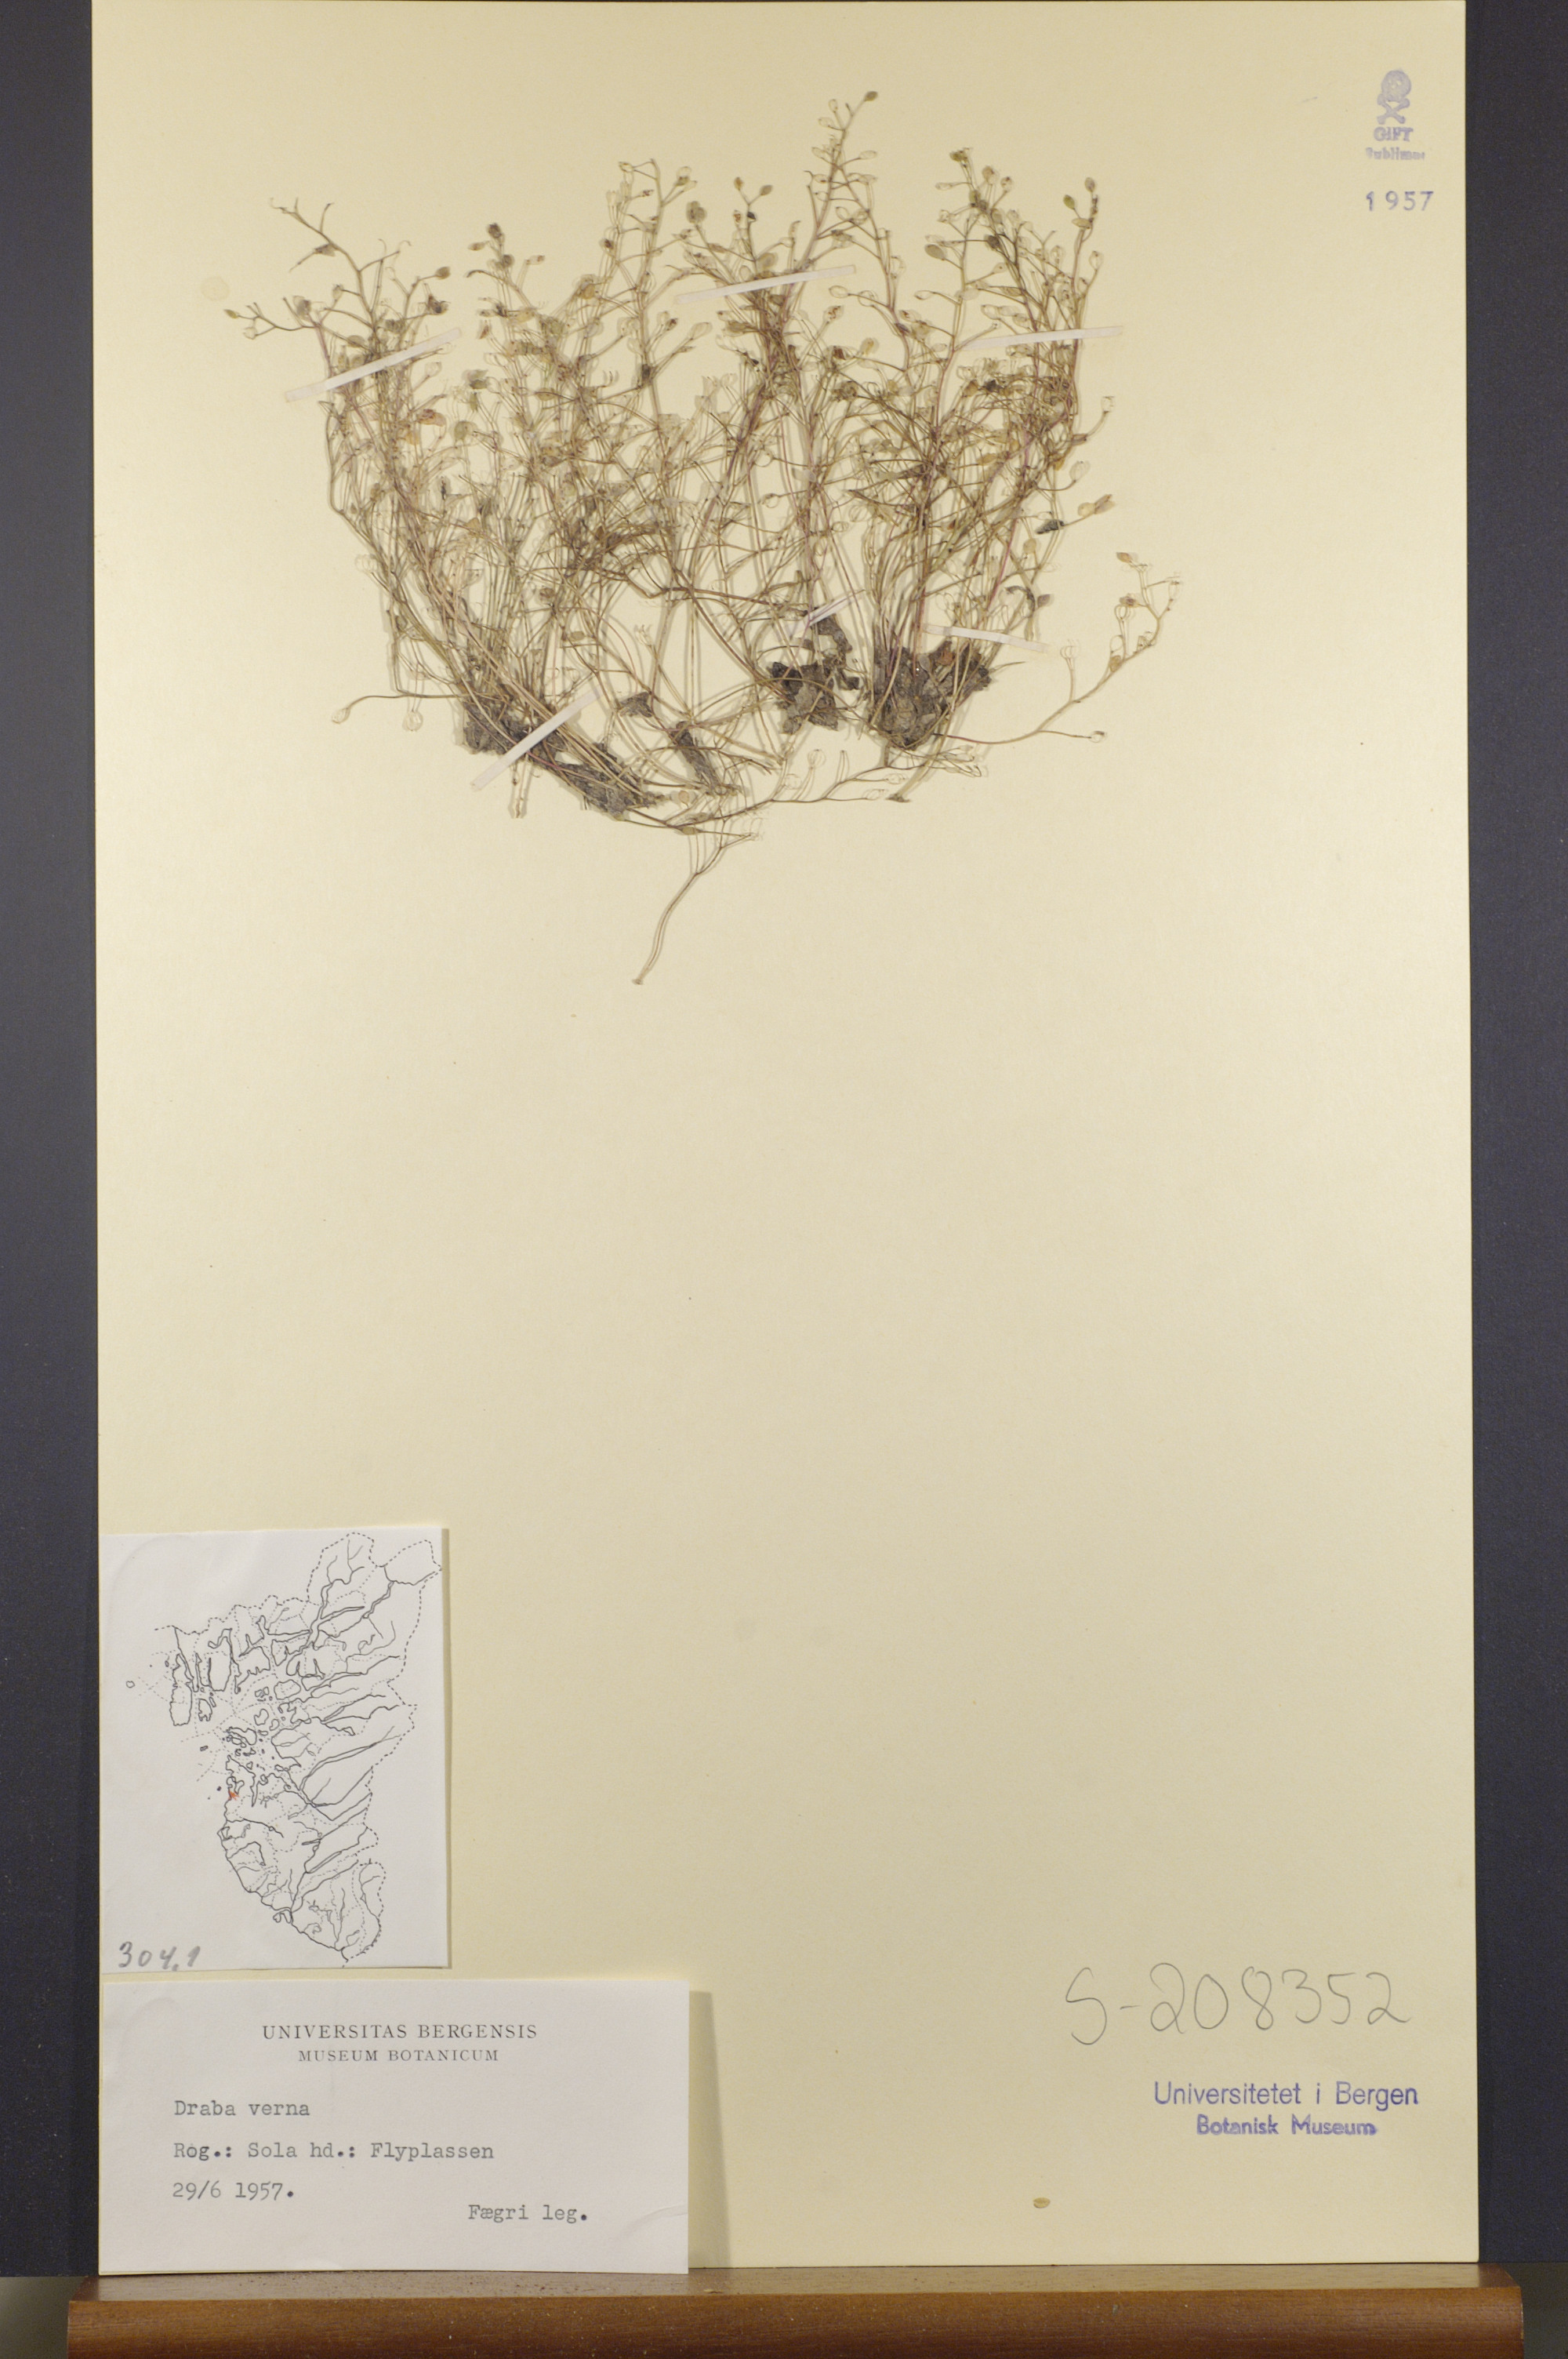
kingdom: Plantae
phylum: Tracheophyta
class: Magnoliopsida
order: Brassicales
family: Brassicaceae
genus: Draba
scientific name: Draba verna
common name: Spring draba
